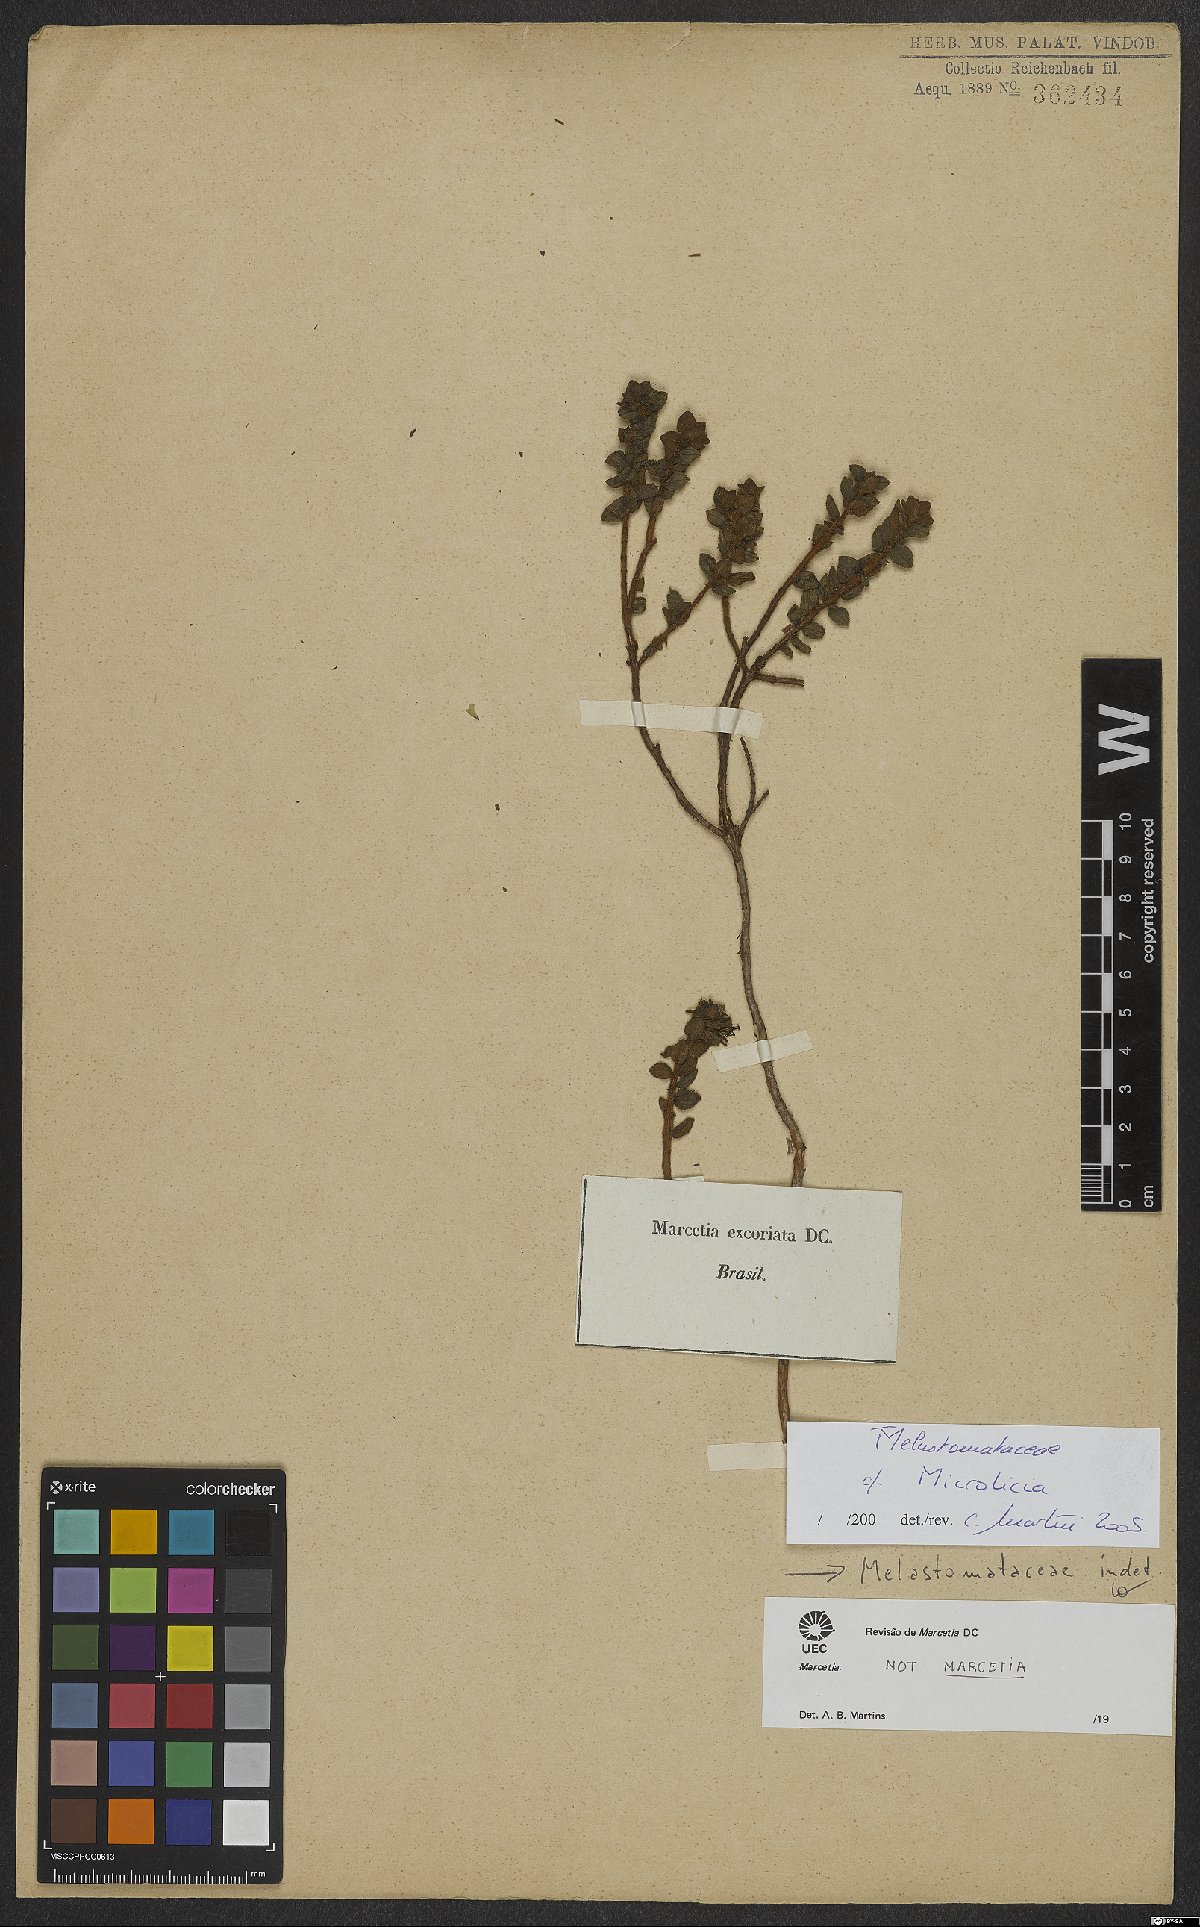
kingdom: Plantae
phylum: Tracheophyta
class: Magnoliopsida
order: Myrtales
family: Melastomataceae
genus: Microlicia
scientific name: Microlicia
